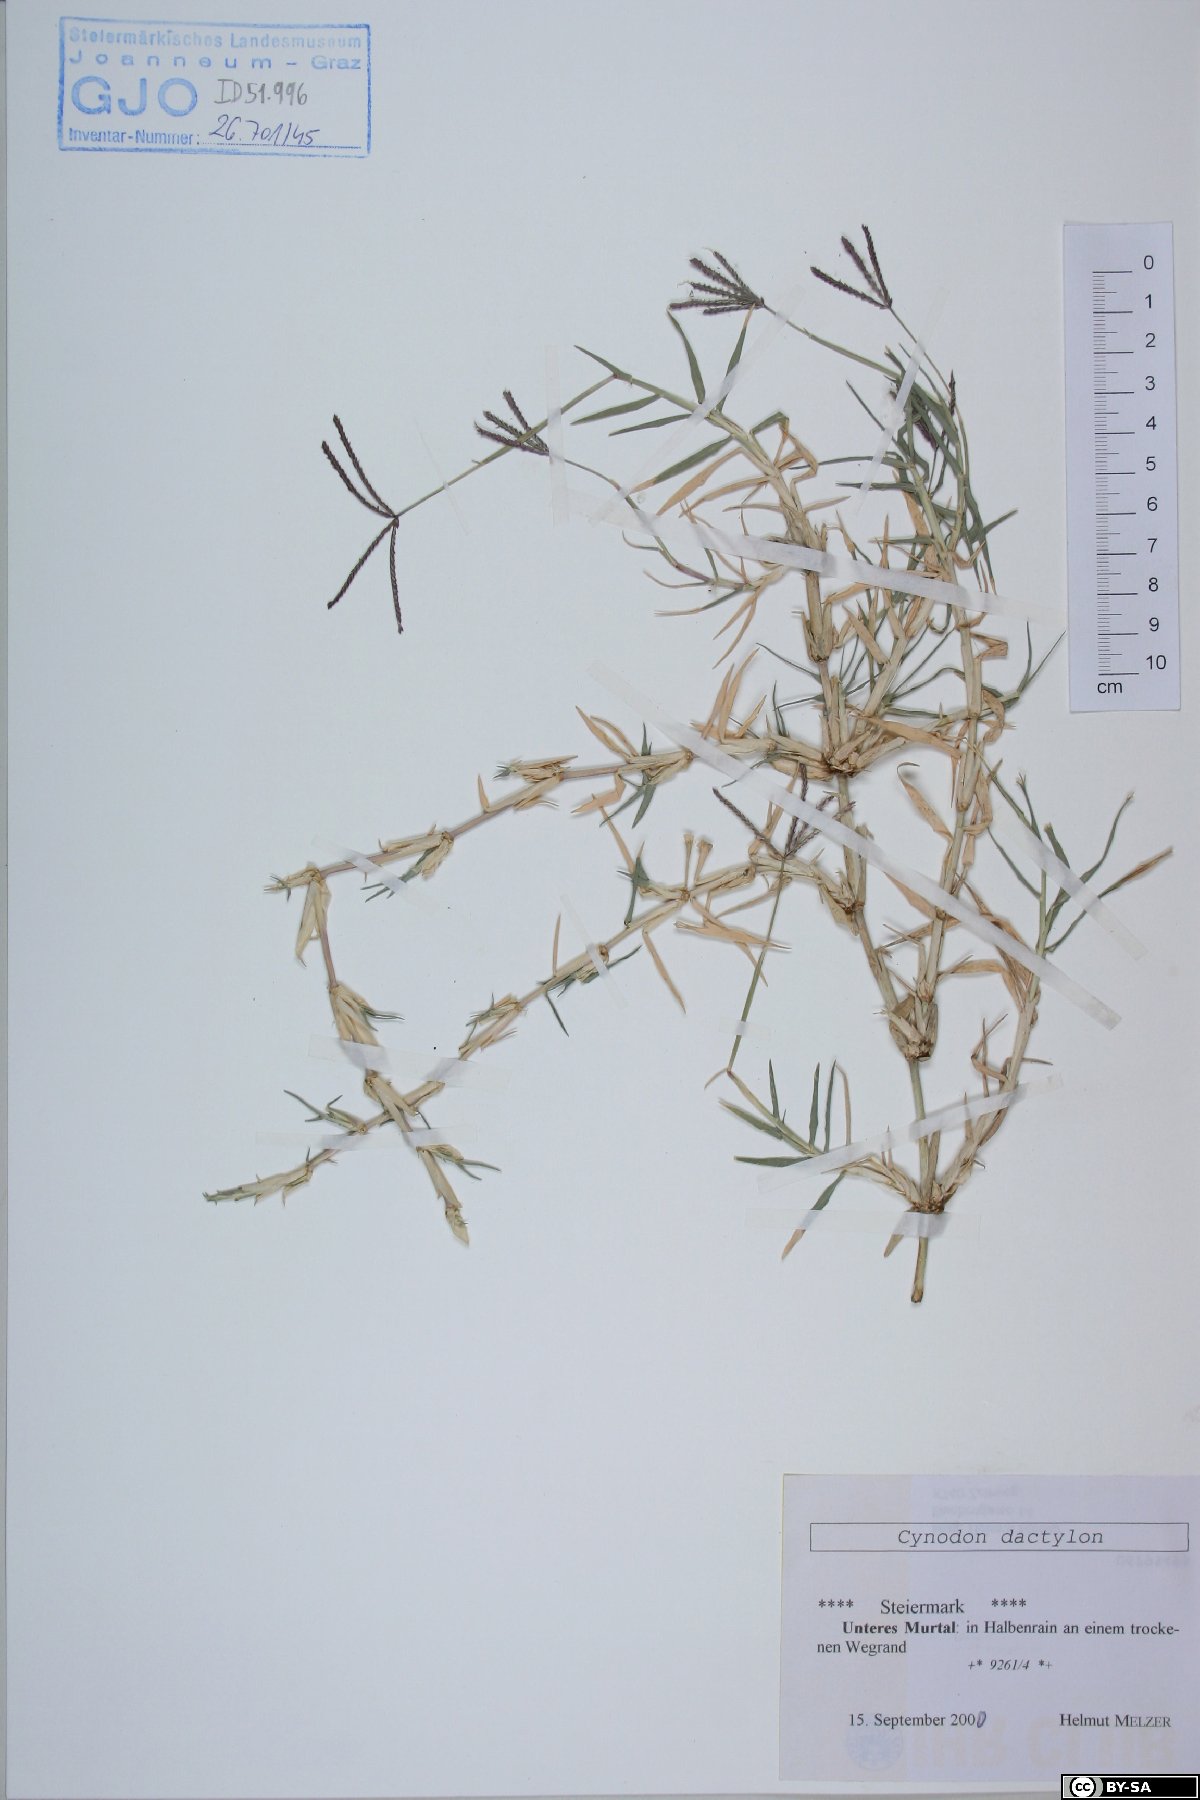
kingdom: Plantae
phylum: Tracheophyta
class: Liliopsida
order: Poales
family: Poaceae
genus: Cynodon
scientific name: Cynodon dactylon
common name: Bermuda grass
